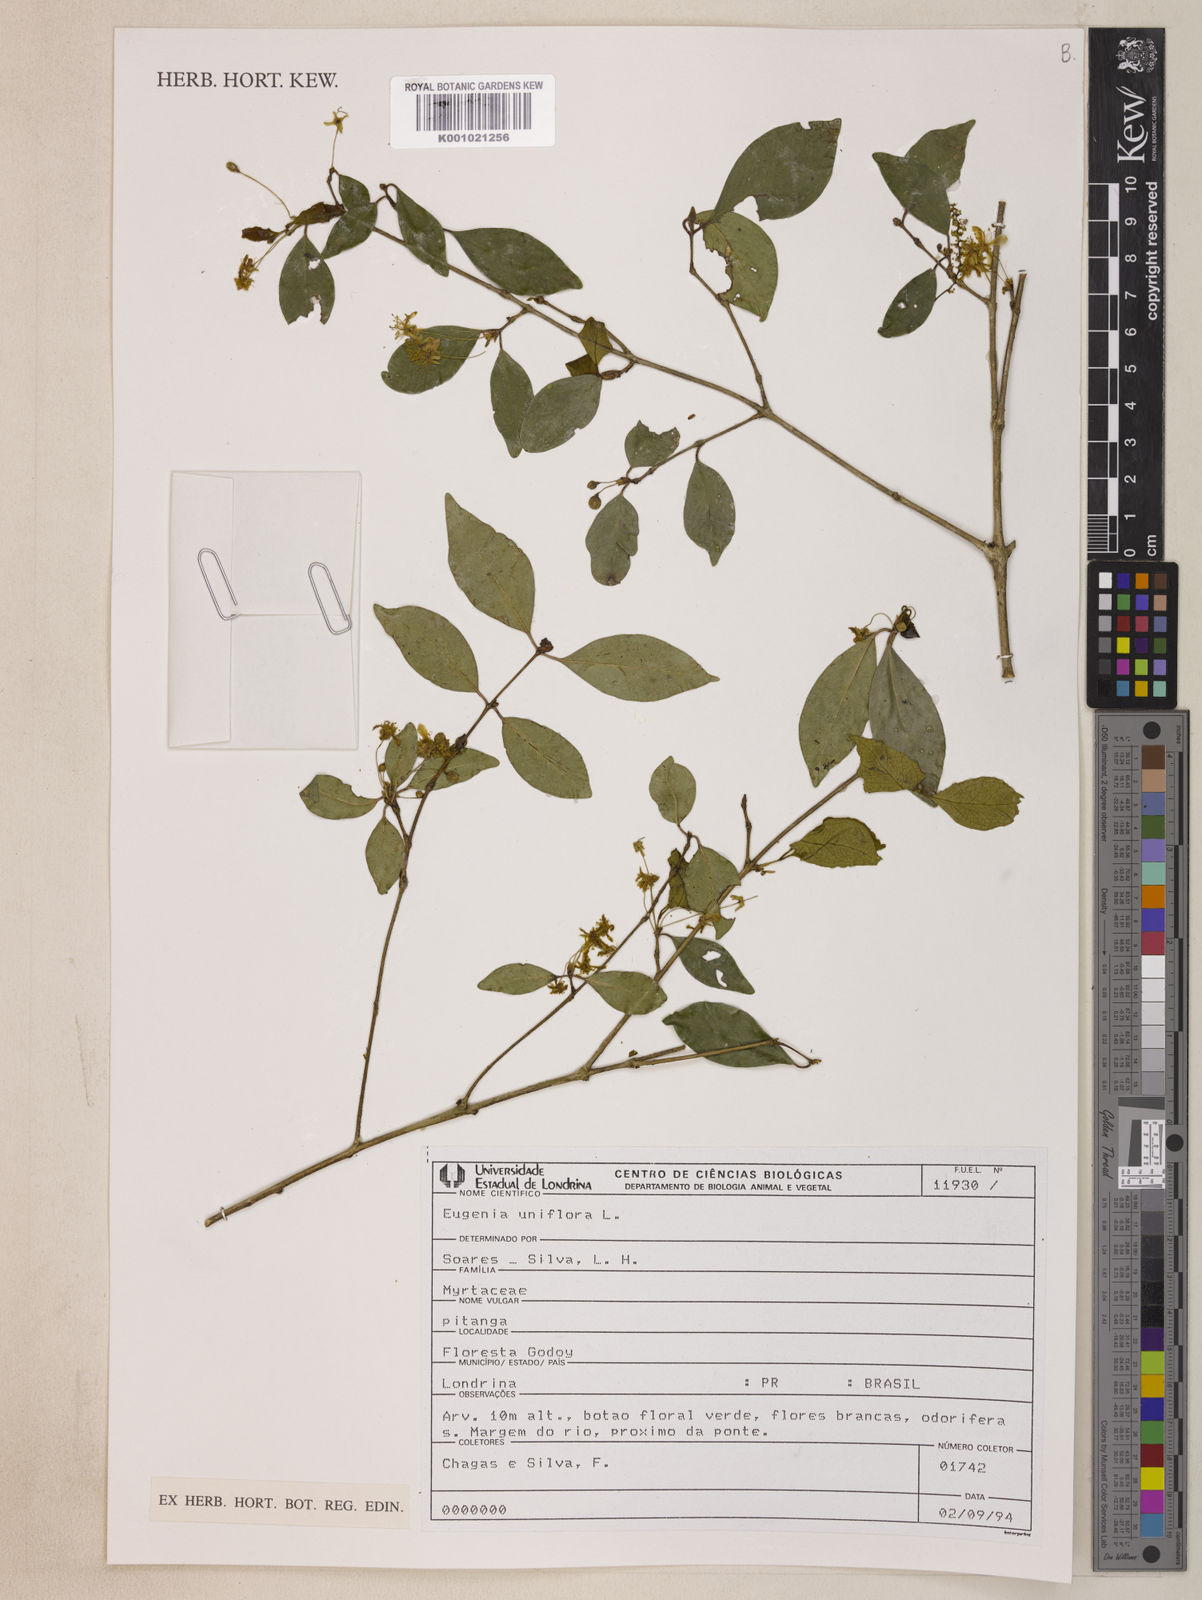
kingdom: Plantae
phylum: Tracheophyta
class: Magnoliopsida
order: Myrtales
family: Myrtaceae
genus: Eugenia
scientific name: Eugenia uniflora
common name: Surinam cherry
